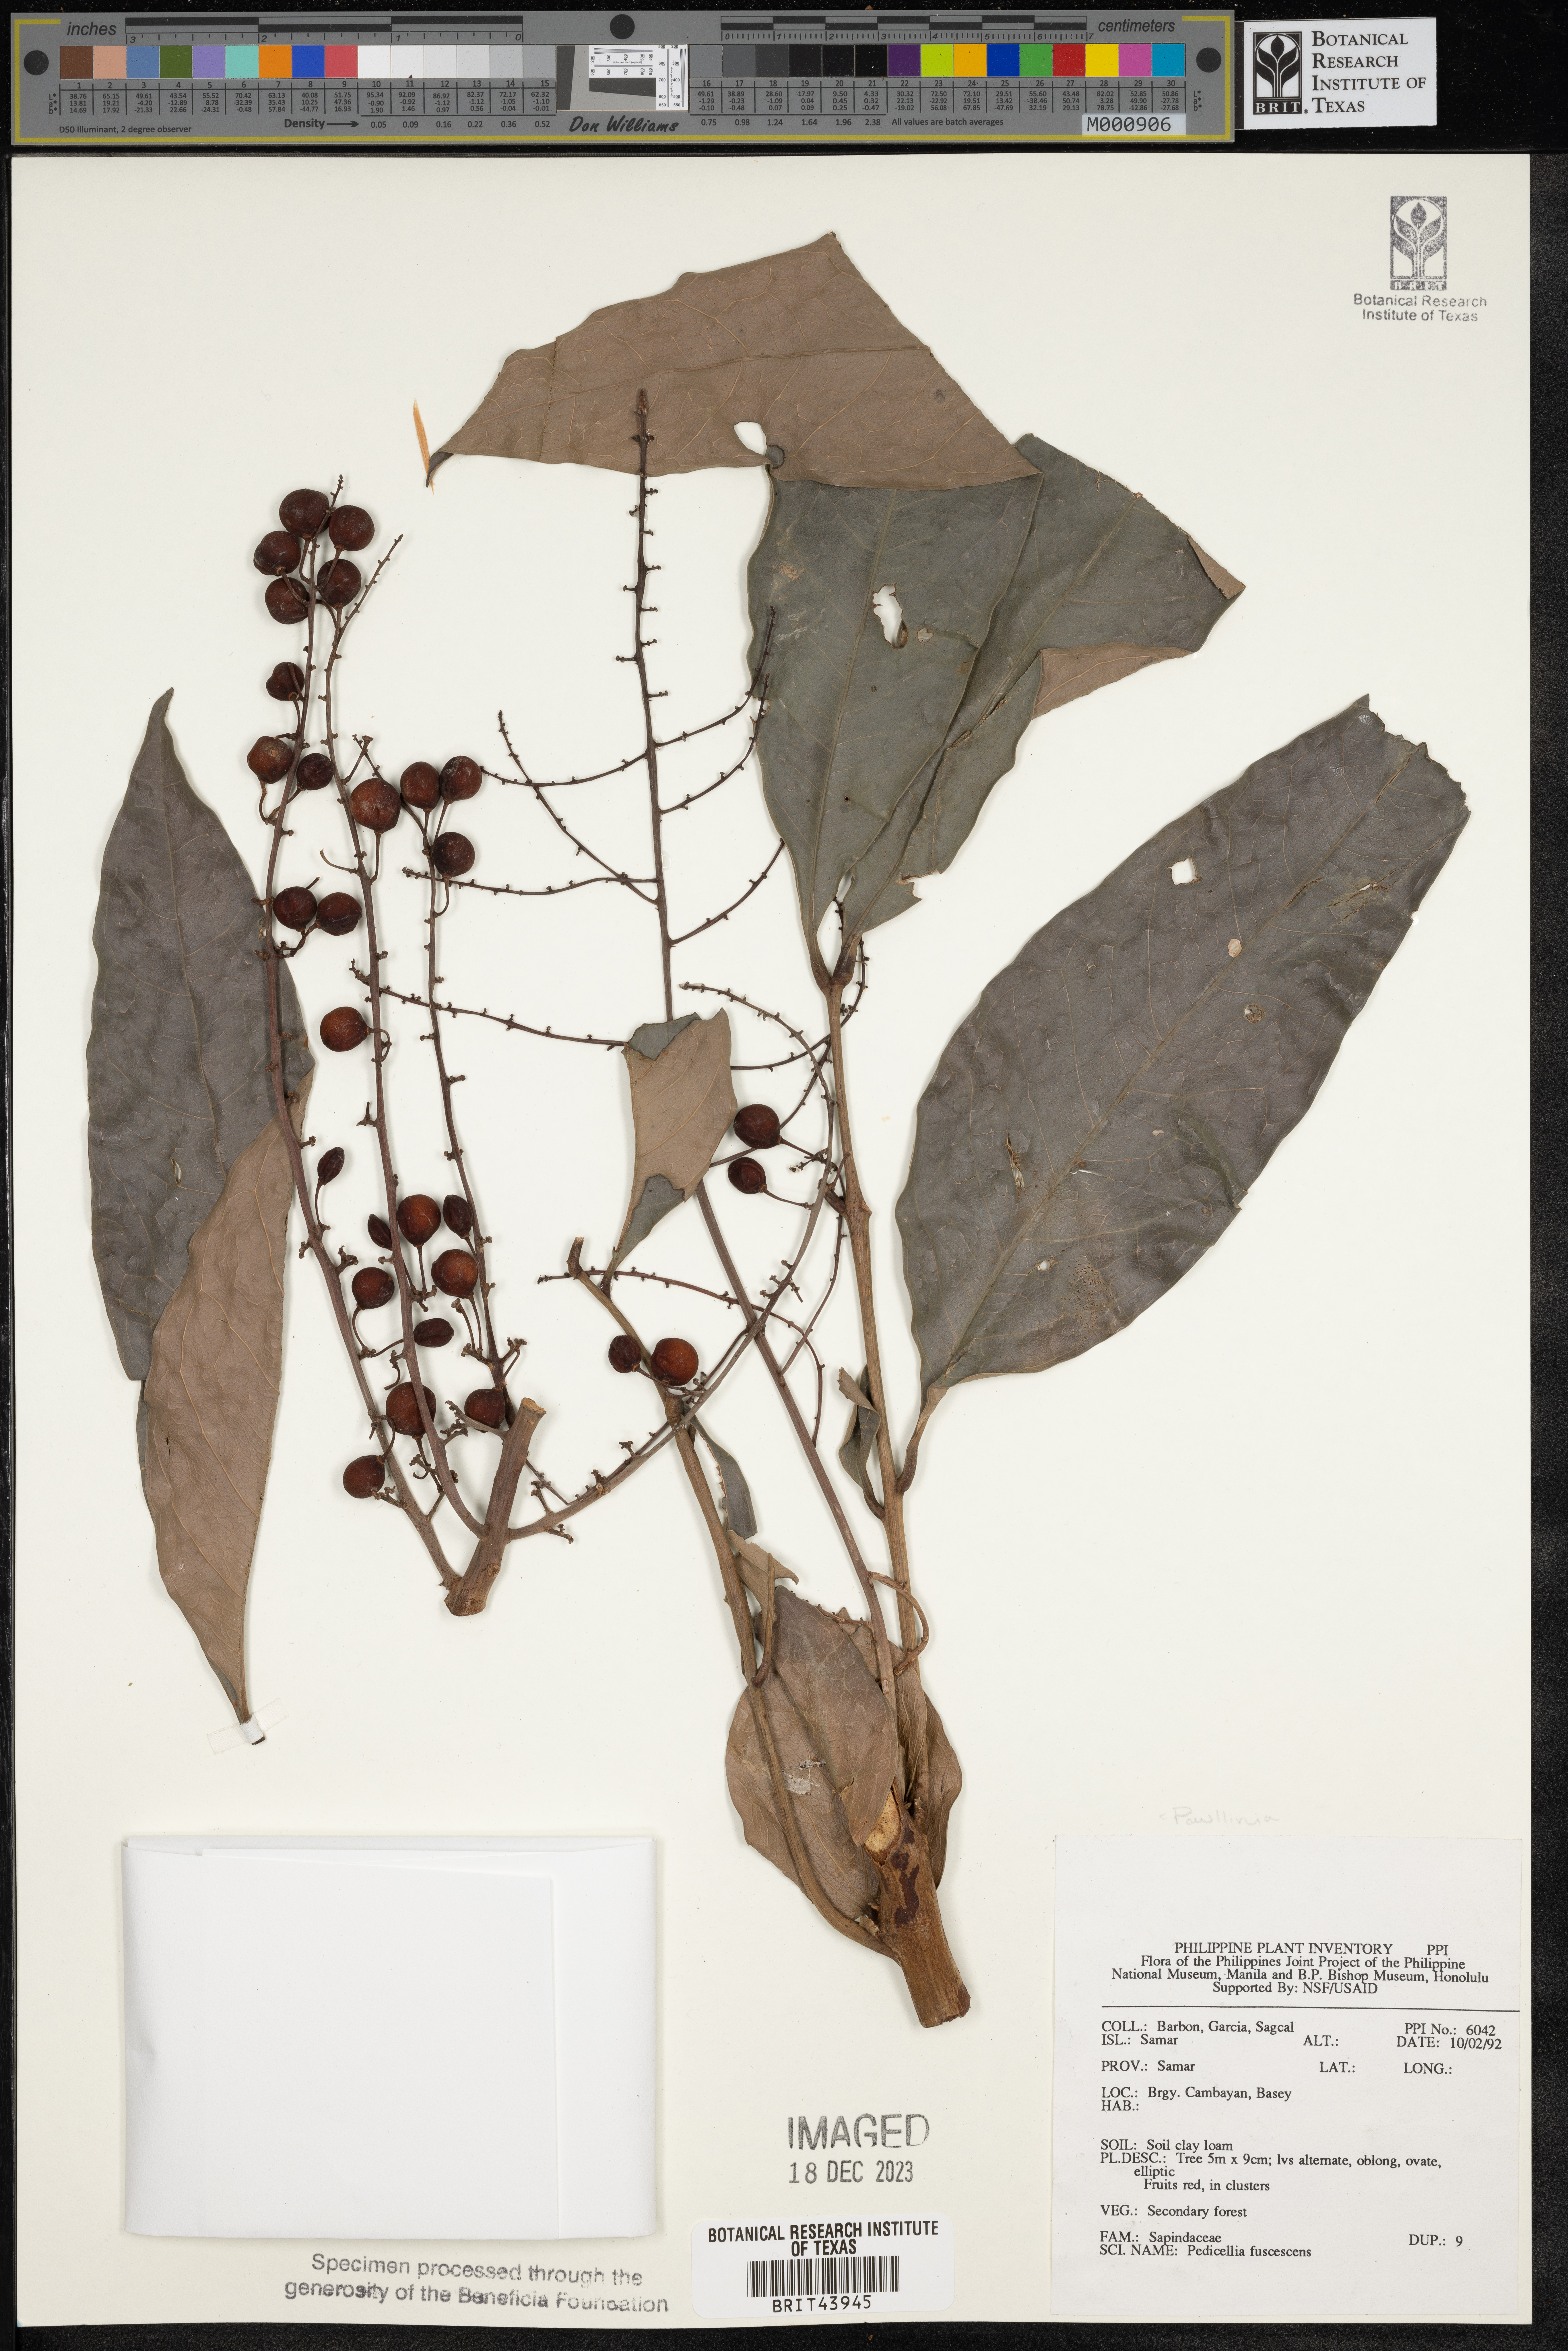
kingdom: Plantae
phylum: Tracheophyta
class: Magnoliopsida
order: Sapindales
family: Sapindaceae
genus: Paullinia
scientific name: Paullinia fuscescens
